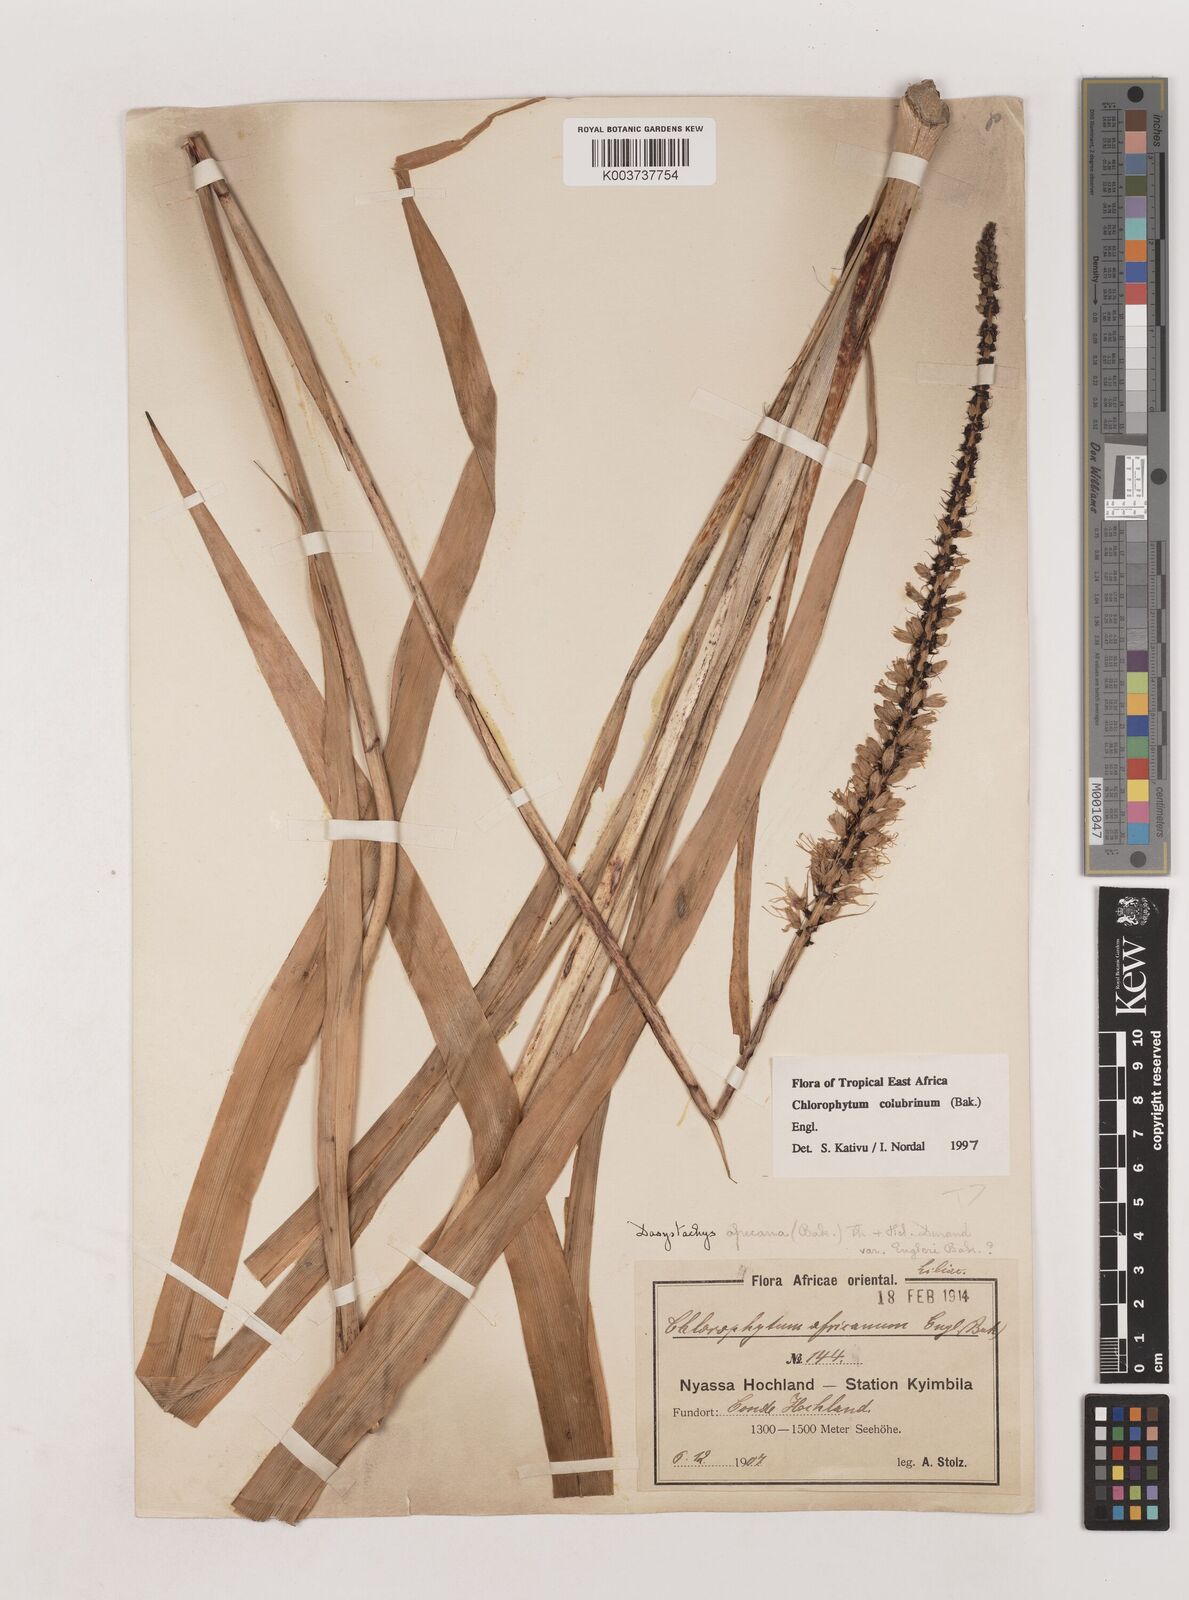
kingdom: Plantae
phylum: Tracheophyta
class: Liliopsida
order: Asparagales
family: Asparagaceae
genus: Chlorophytum
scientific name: Chlorophytum colubrinum
